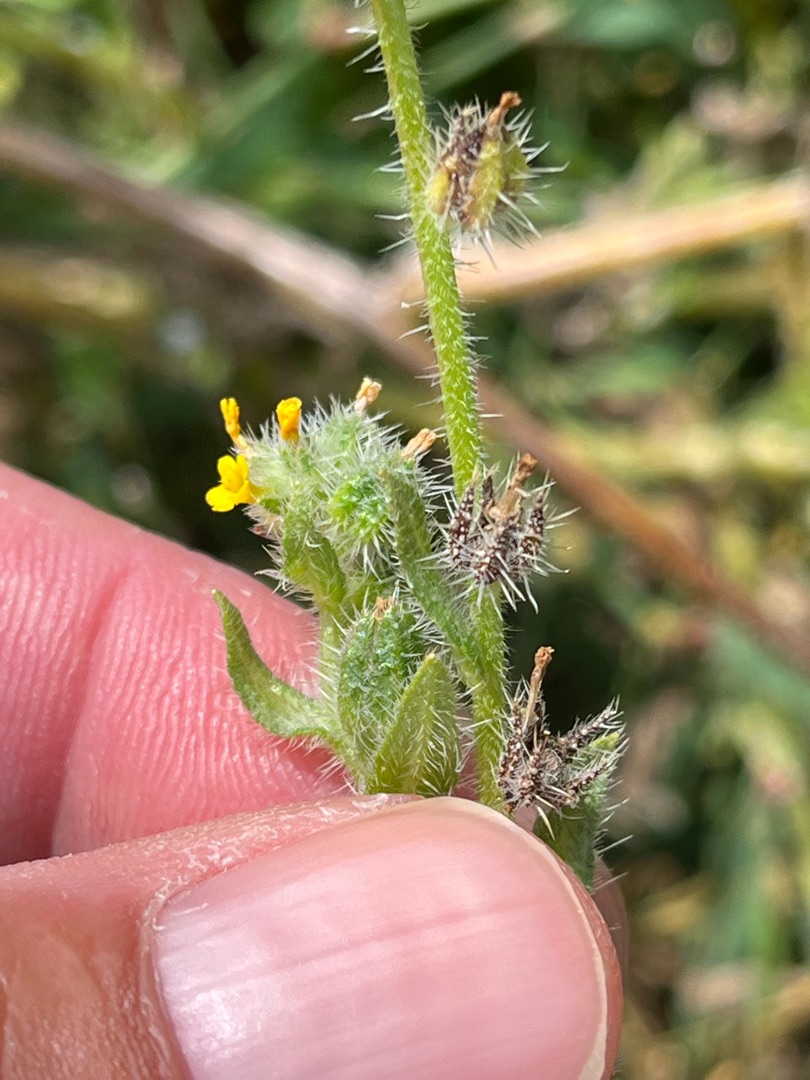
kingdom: Plantae
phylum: Tracheophyta
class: Magnoliopsida
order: Boraginales
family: Boraginaceae
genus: Amsinckia
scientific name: Amsinckia menziesii
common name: Småblomstret gulurt
